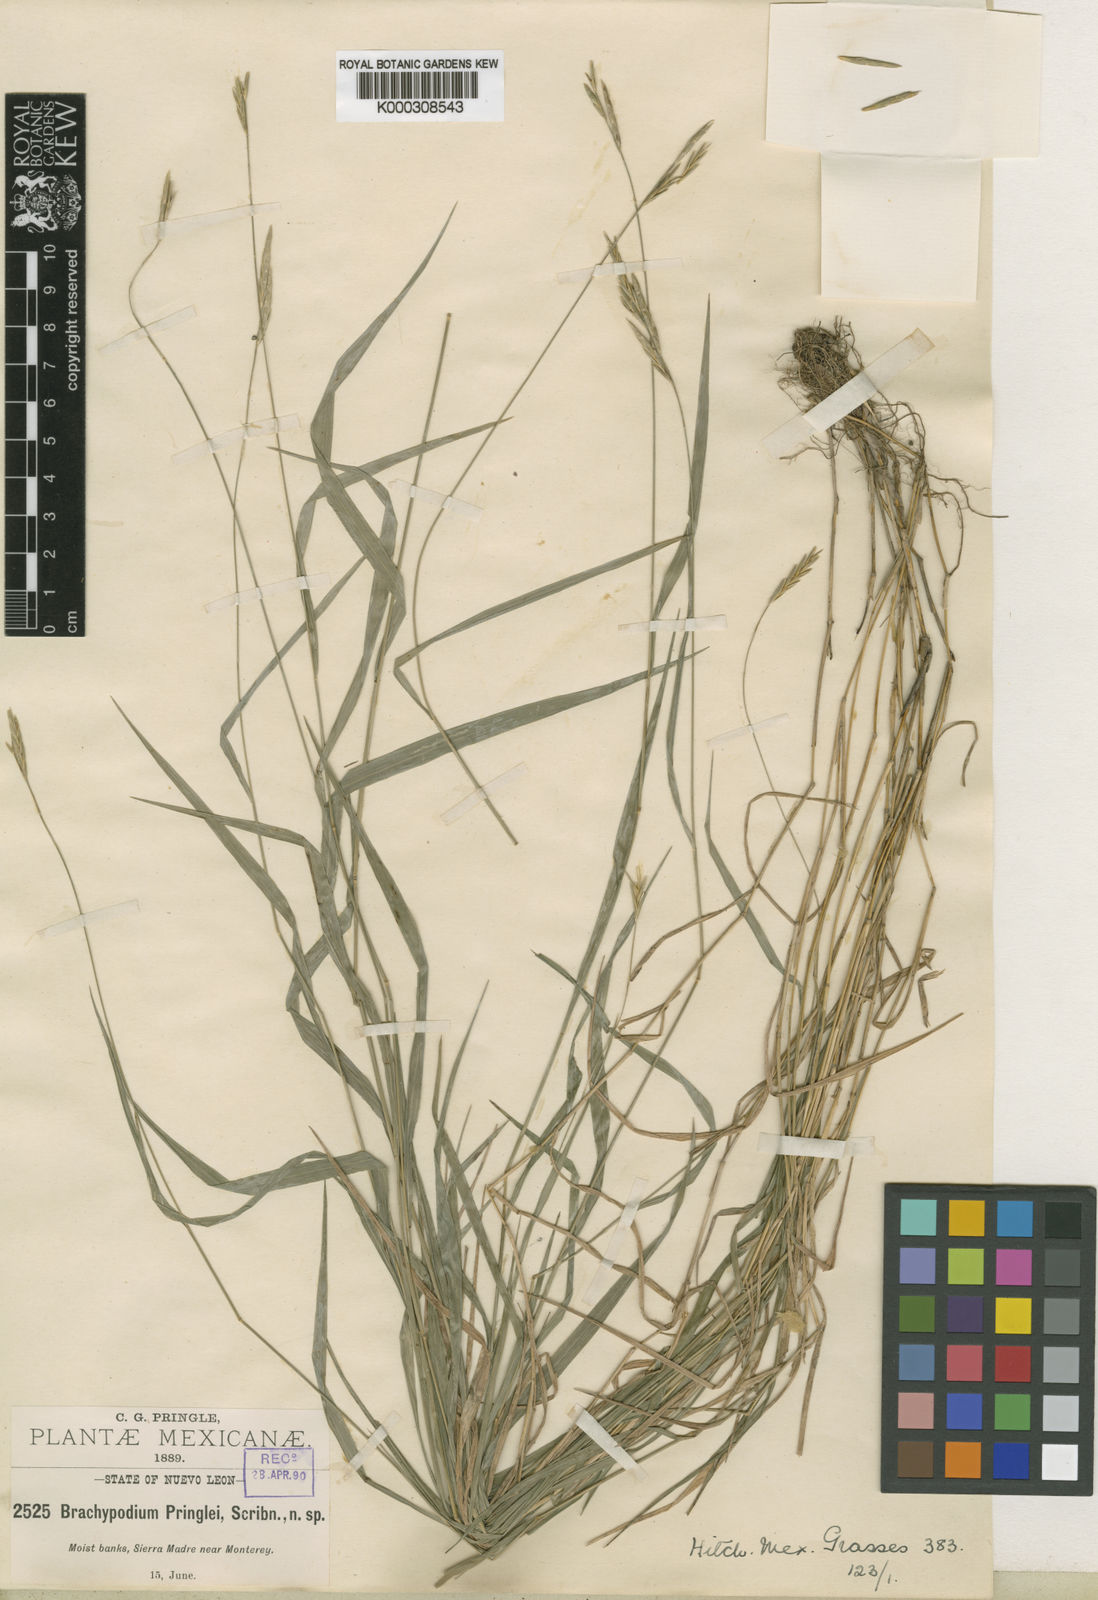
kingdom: Plantae
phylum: Tracheophyta
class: Liliopsida
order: Poales
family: Poaceae
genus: Brachypodium
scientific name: Brachypodium pringlei
